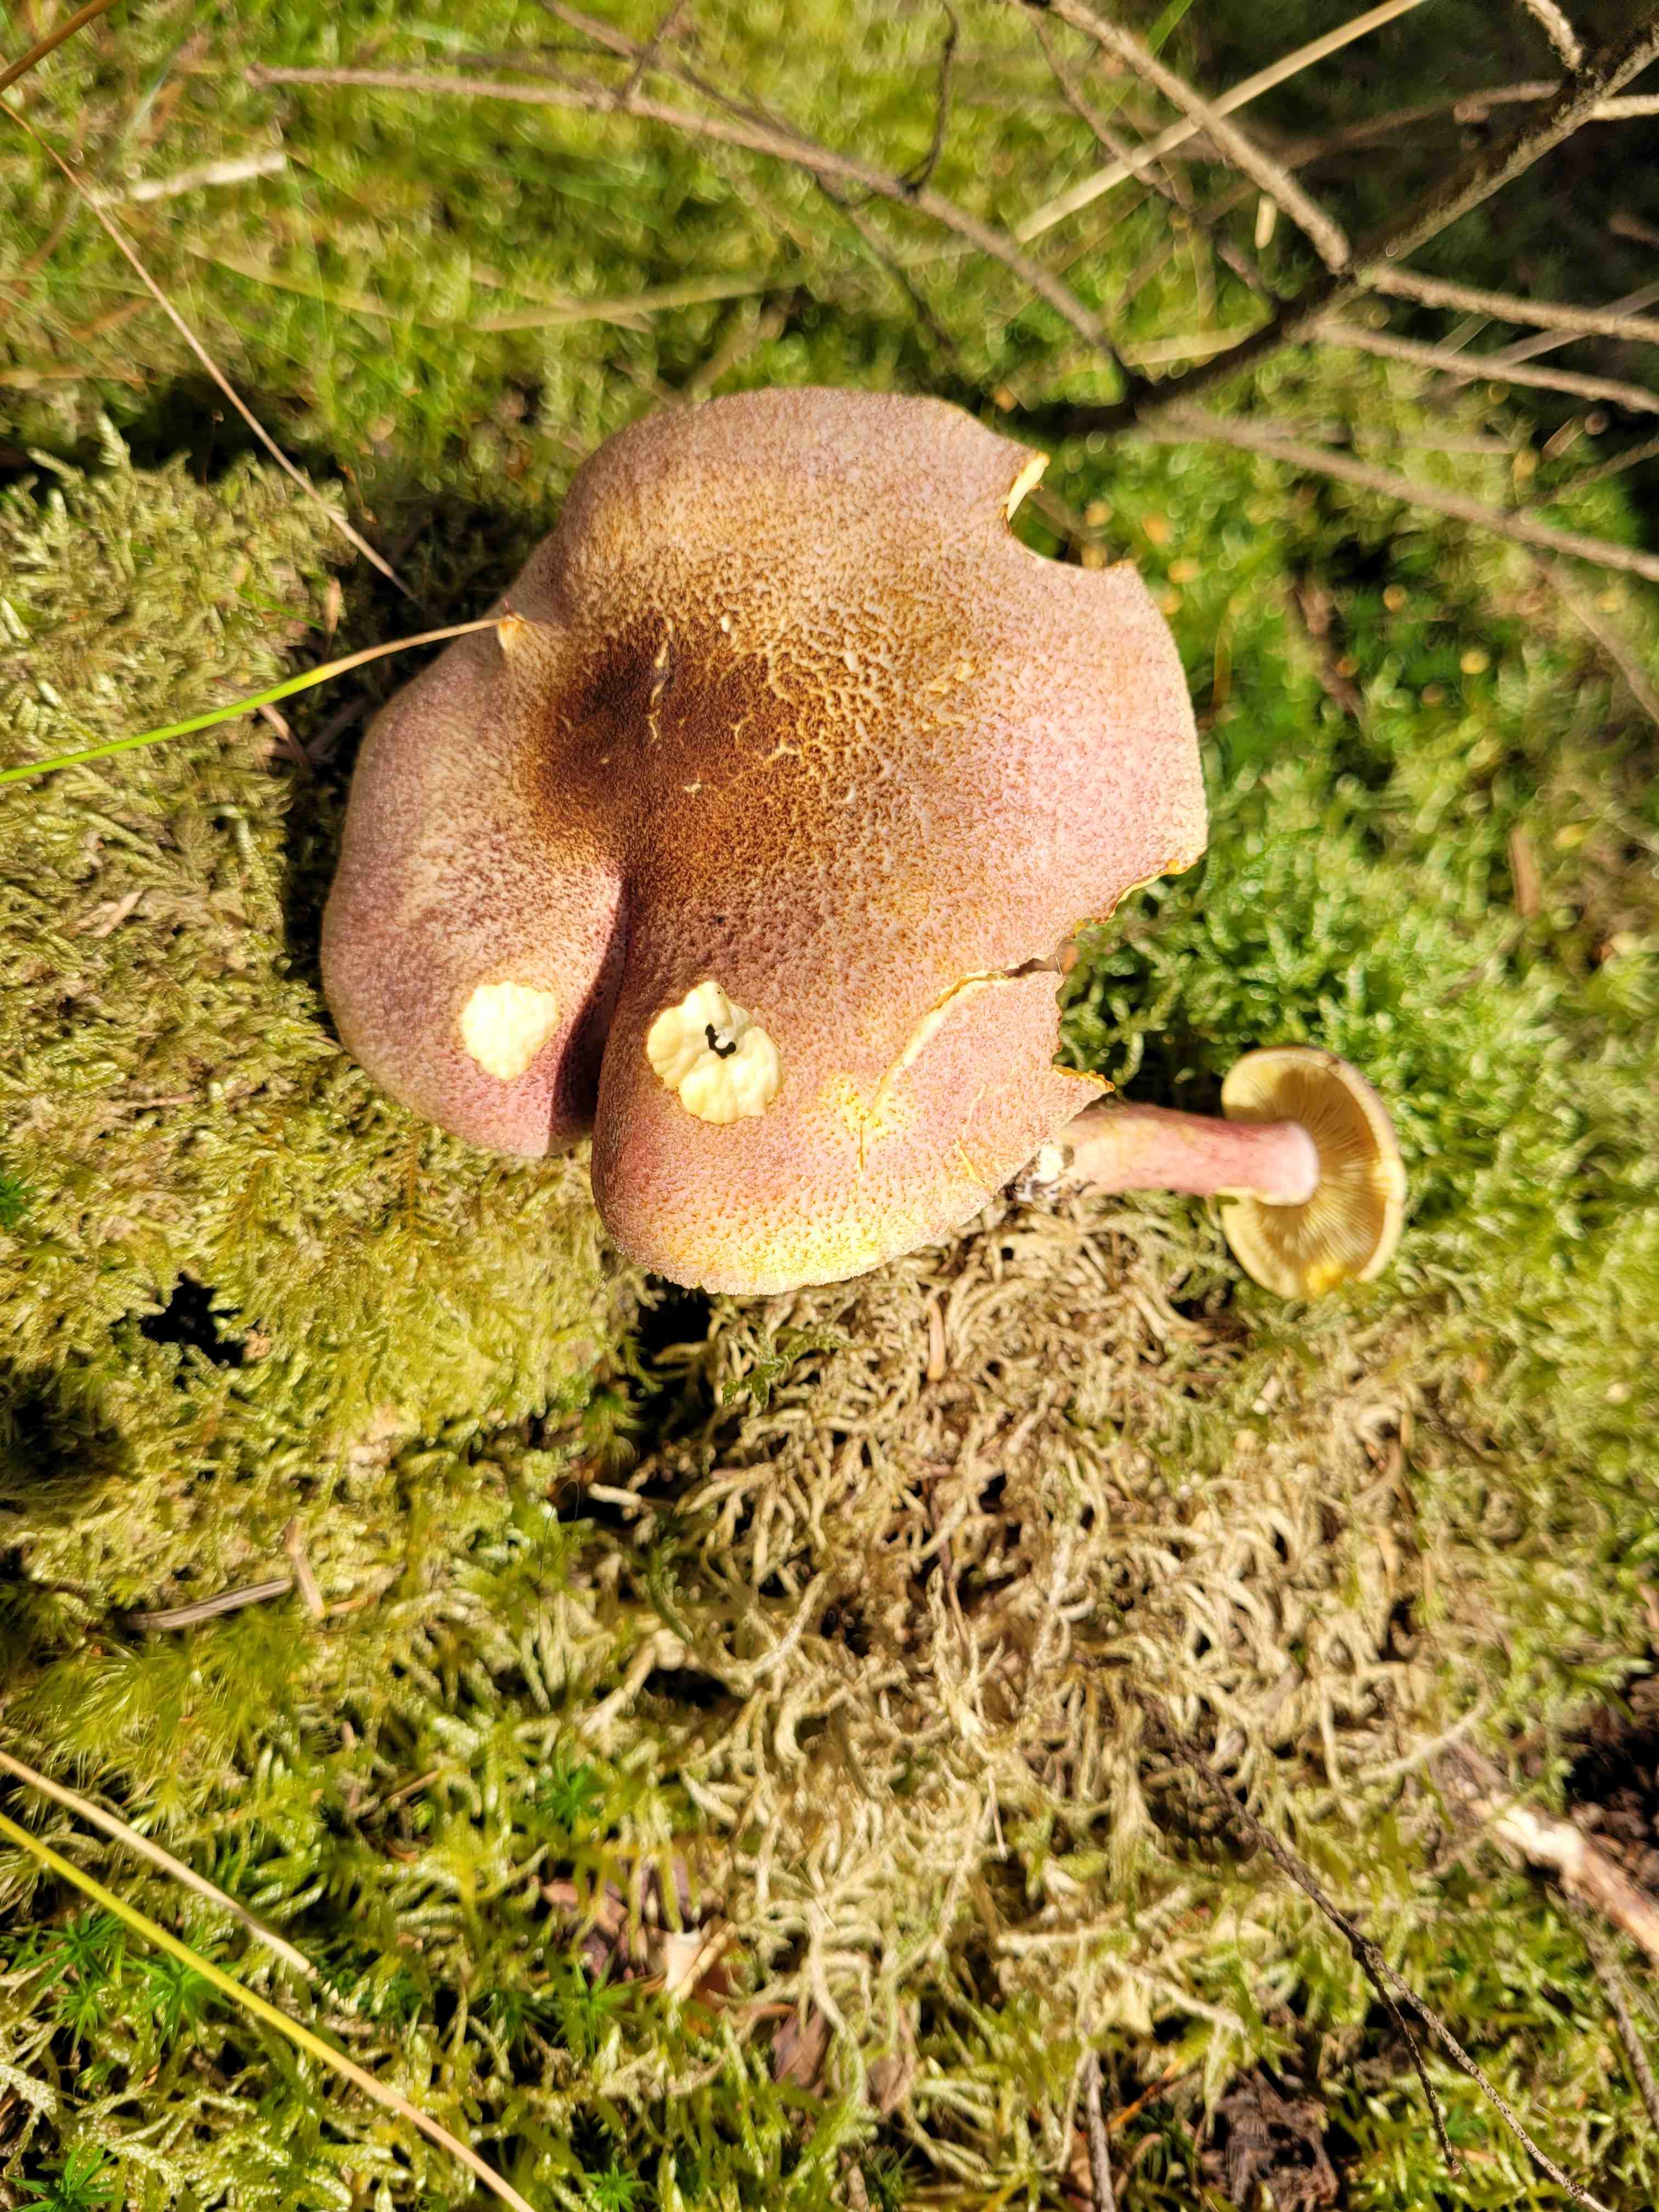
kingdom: Fungi
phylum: Basidiomycota
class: Agaricomycetes
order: Agaricales
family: Tricholomataceae
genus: Tricholomopsis
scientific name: Tricholomopsis rutilans
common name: purpur-væbnerhat
